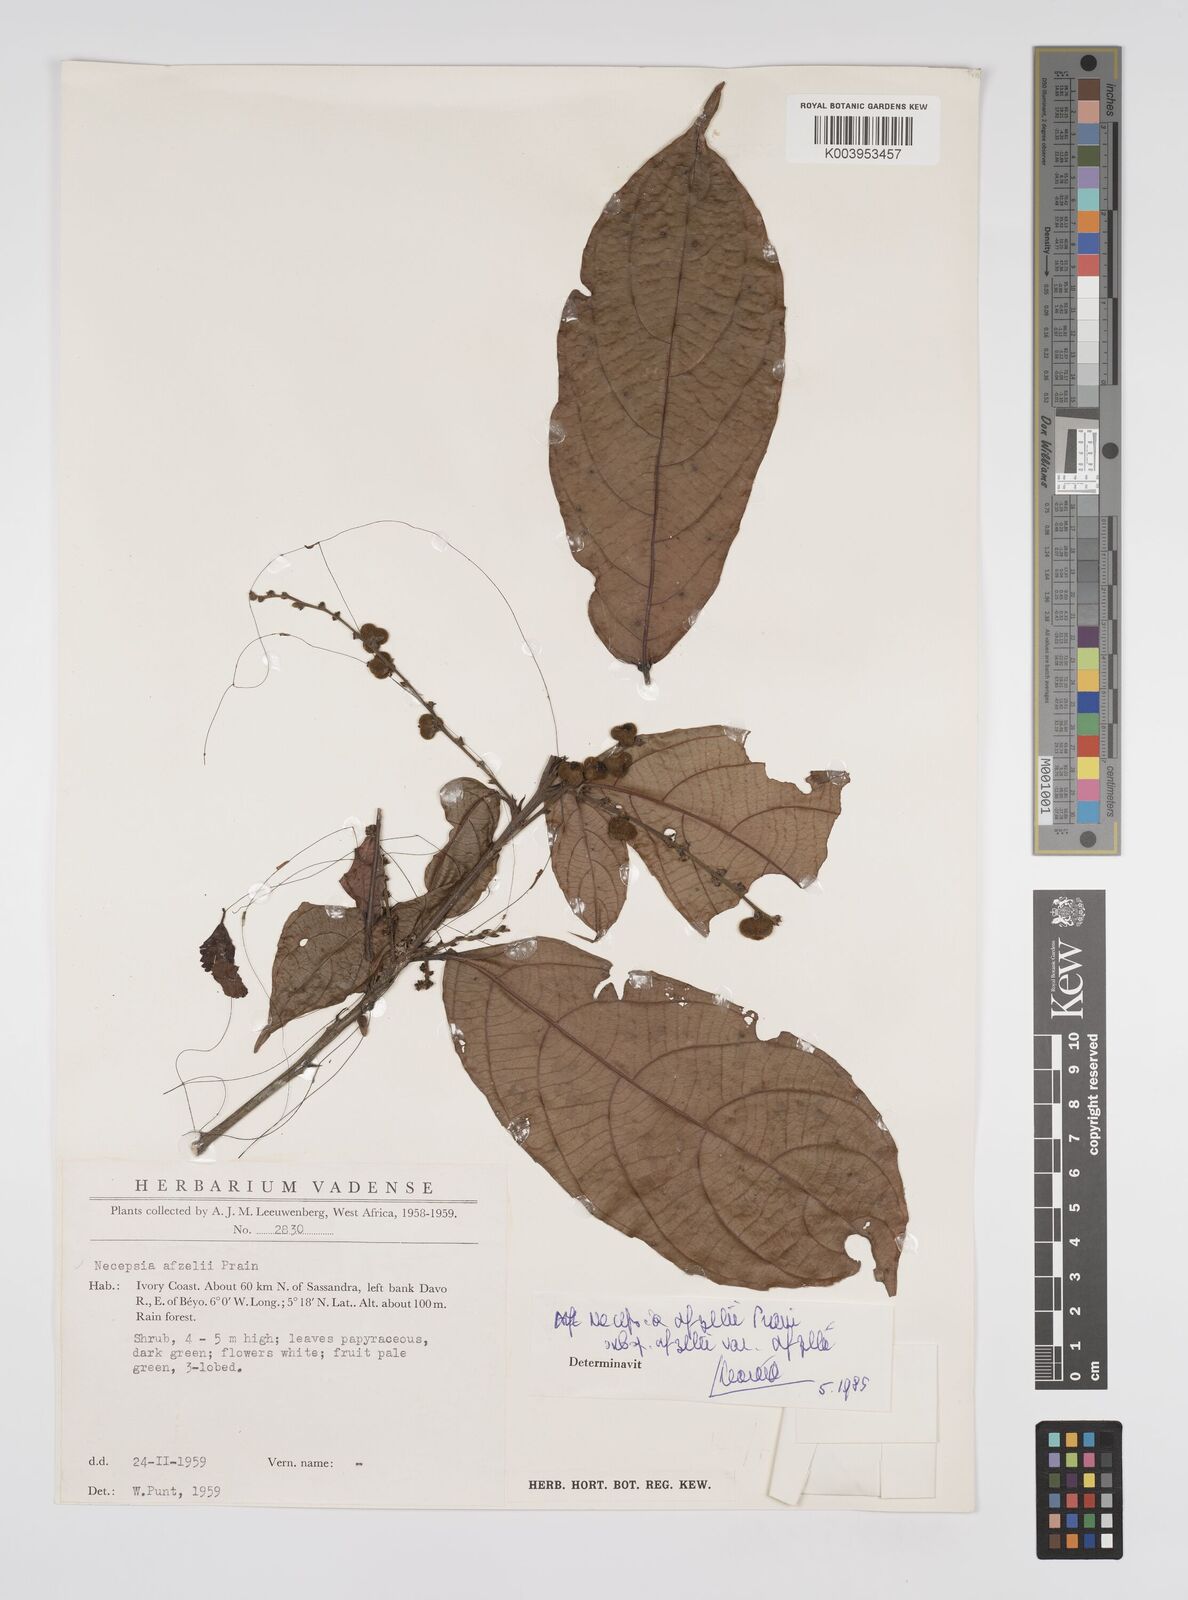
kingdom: Plantae
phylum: Tracheophyta
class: Magnoliopsida
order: Malpighiales
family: Euphorbiaceae
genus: Necepsia
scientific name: Necepsia afzelii
